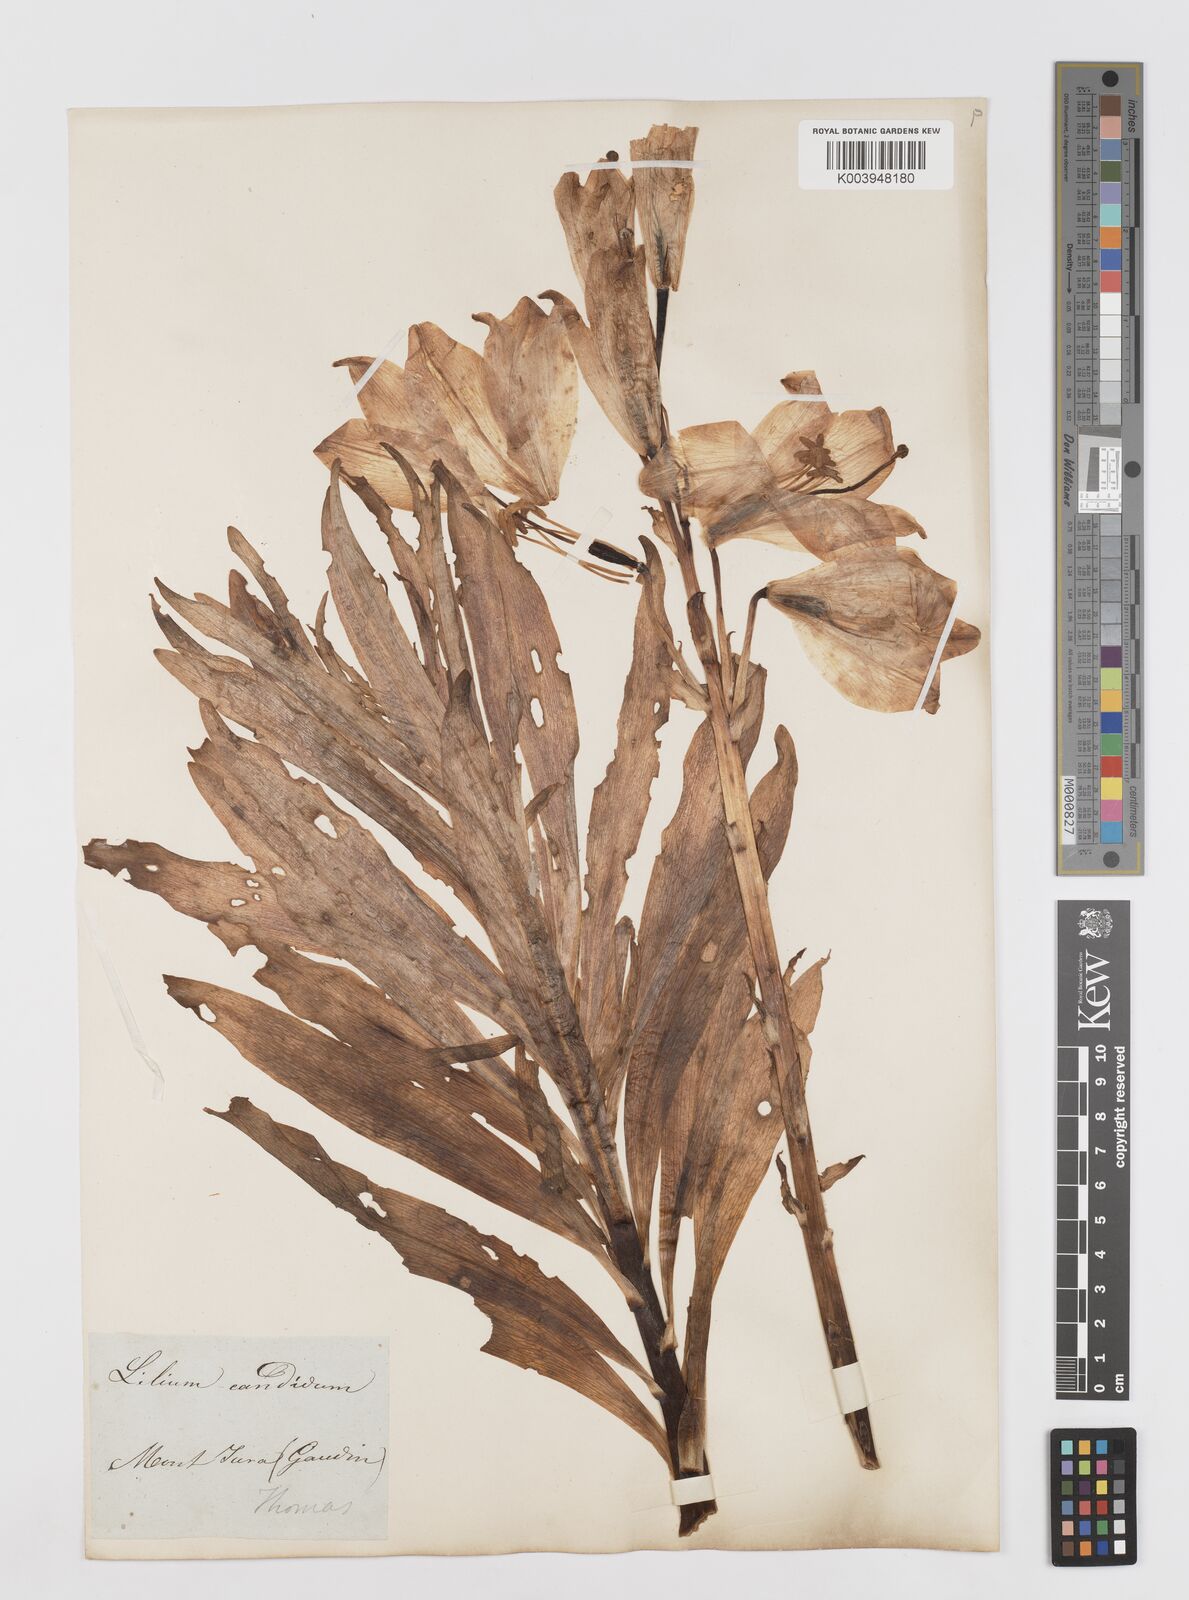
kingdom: Plantae
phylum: Tracheophyta
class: Liliopsida
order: Liliales
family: Liliaceae
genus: Lilium
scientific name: Lilium candidum
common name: Madonna lily
